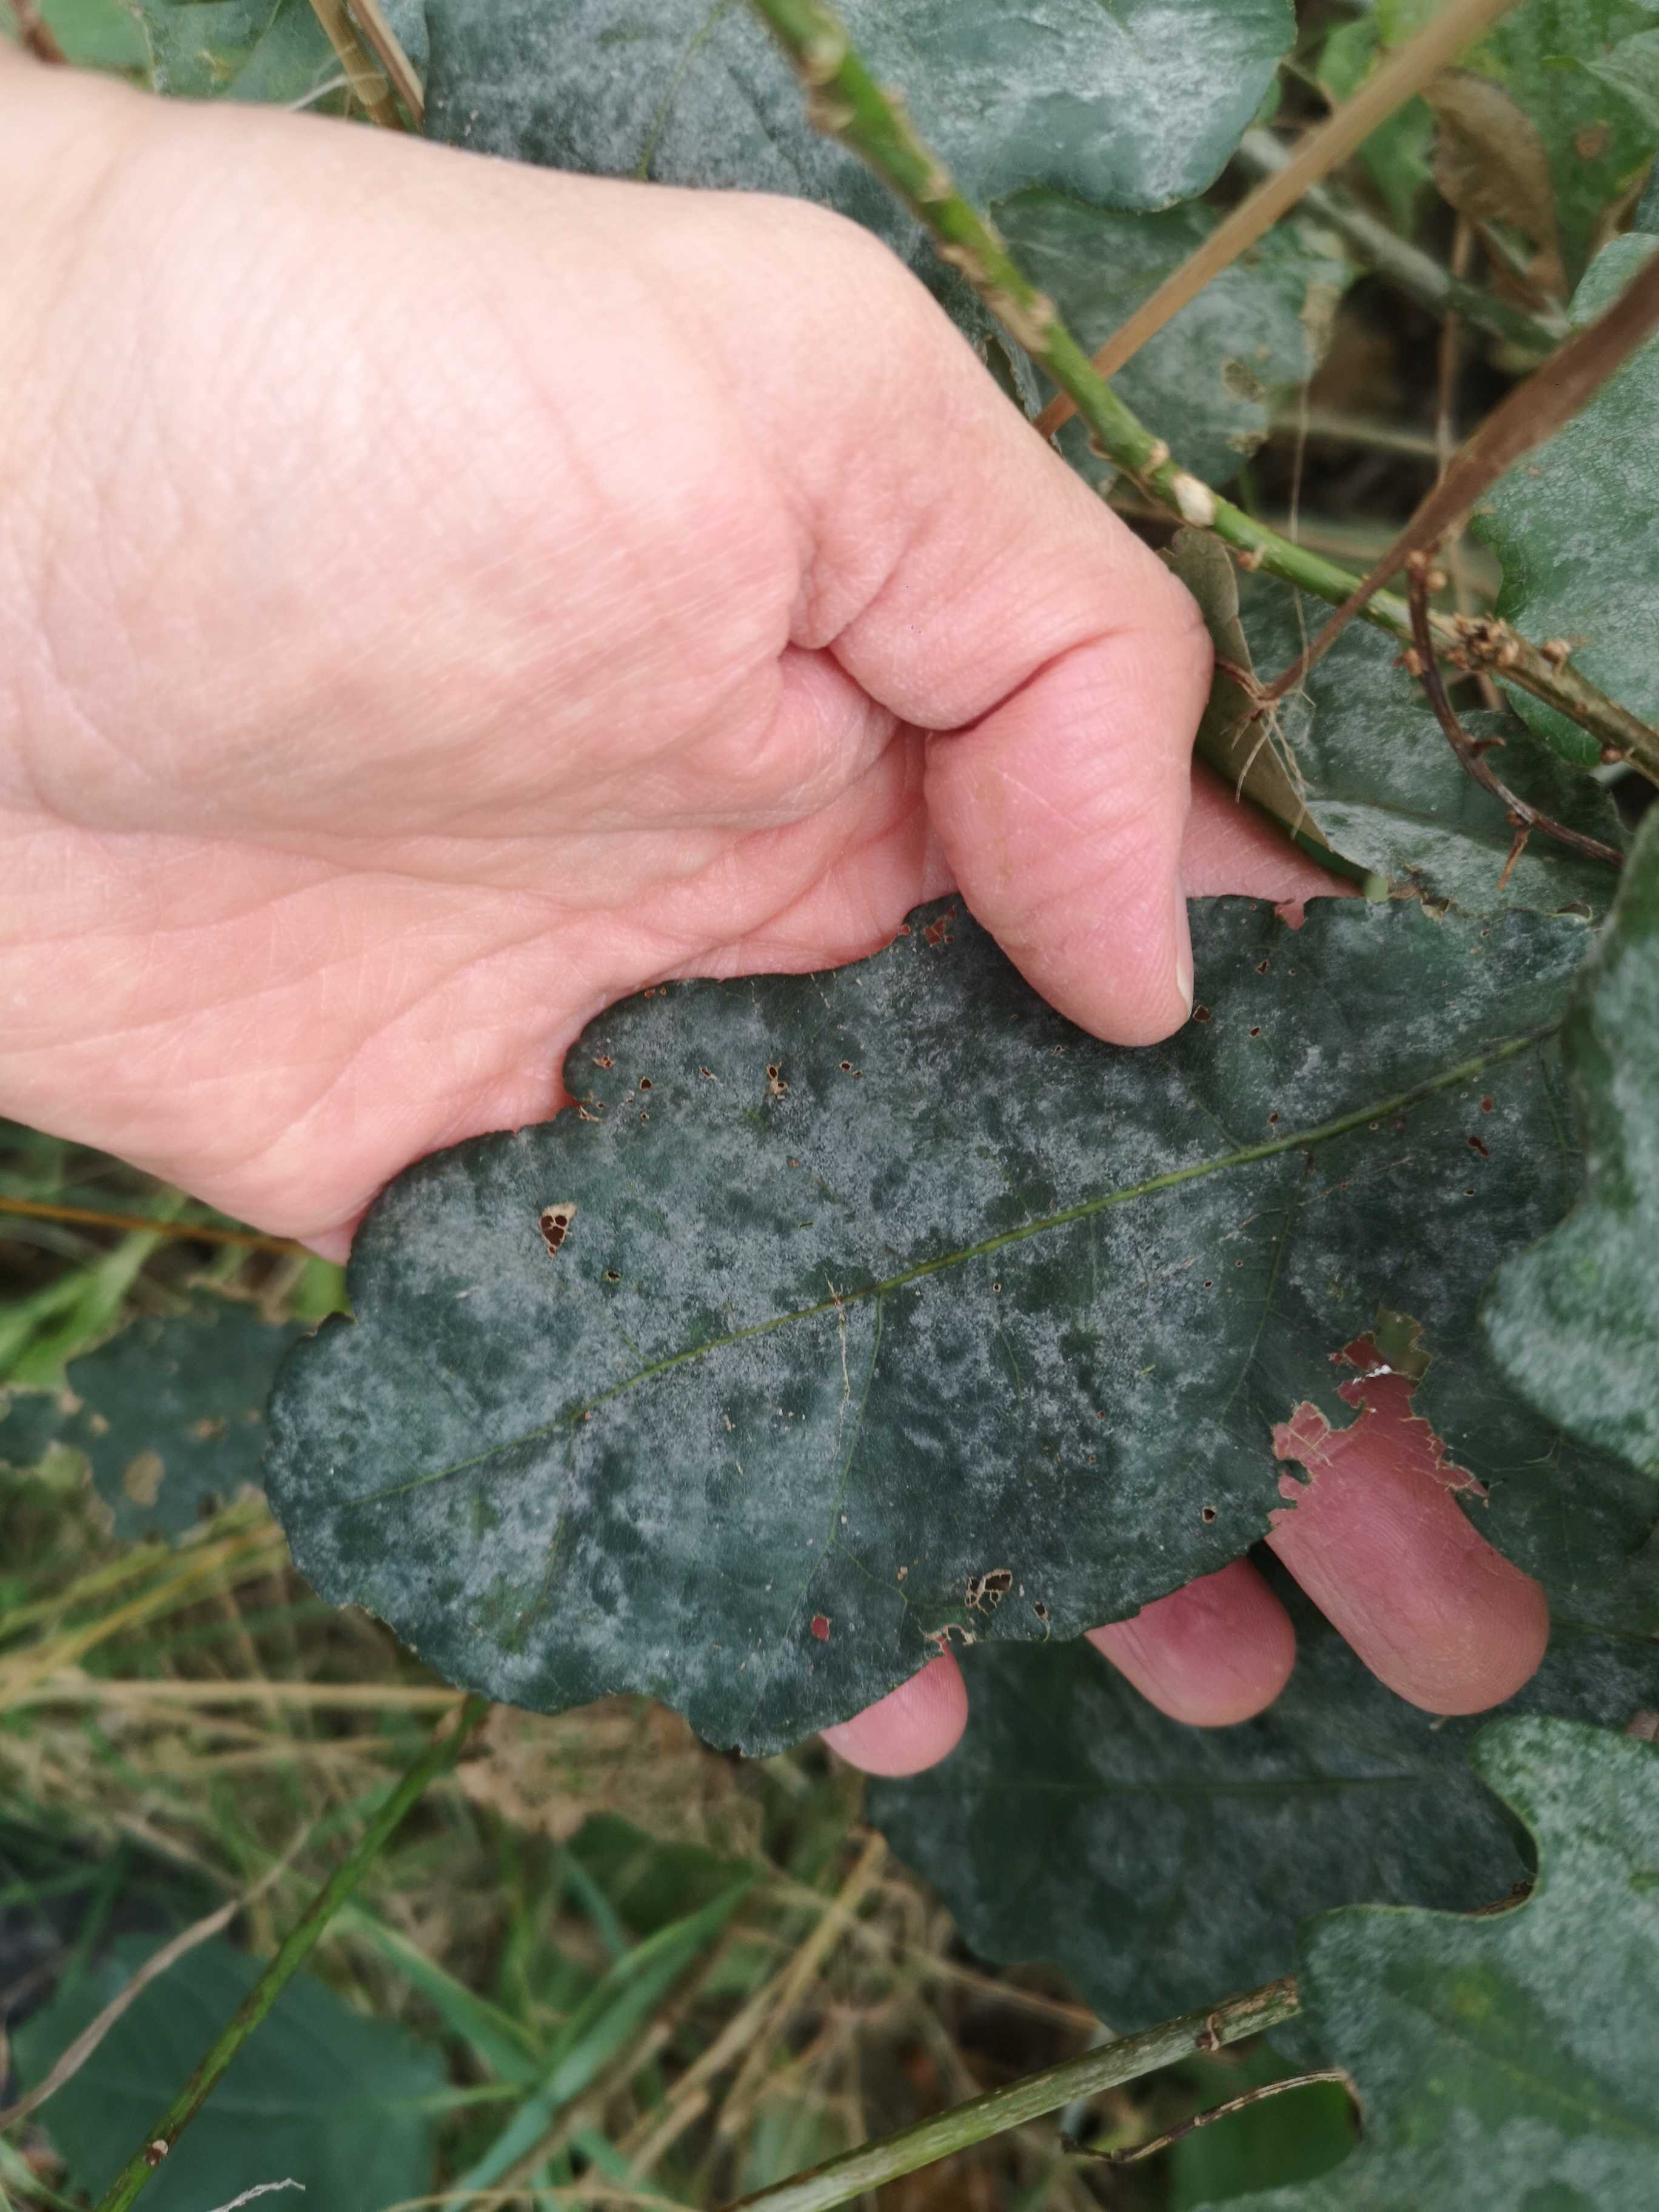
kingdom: Fungi
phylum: Ascomycota
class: Leotiomycetes
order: Helotiales
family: Erysiphaceae
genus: Erysiphe
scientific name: Erysiphe alphitoides
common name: ege-meldug
